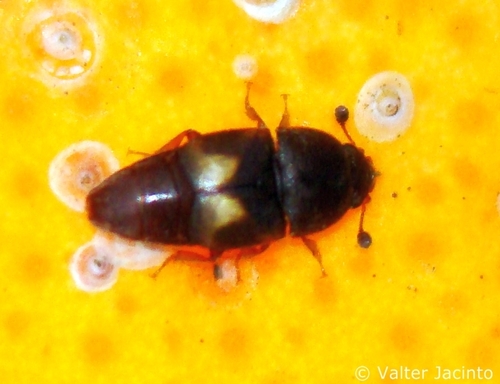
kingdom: Animalia
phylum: Arthropoda
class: Insecta
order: Coleoptera
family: Nitidulidae
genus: Carpophilus
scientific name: Carpophilus hemipterus
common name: Dried fruit beetle
